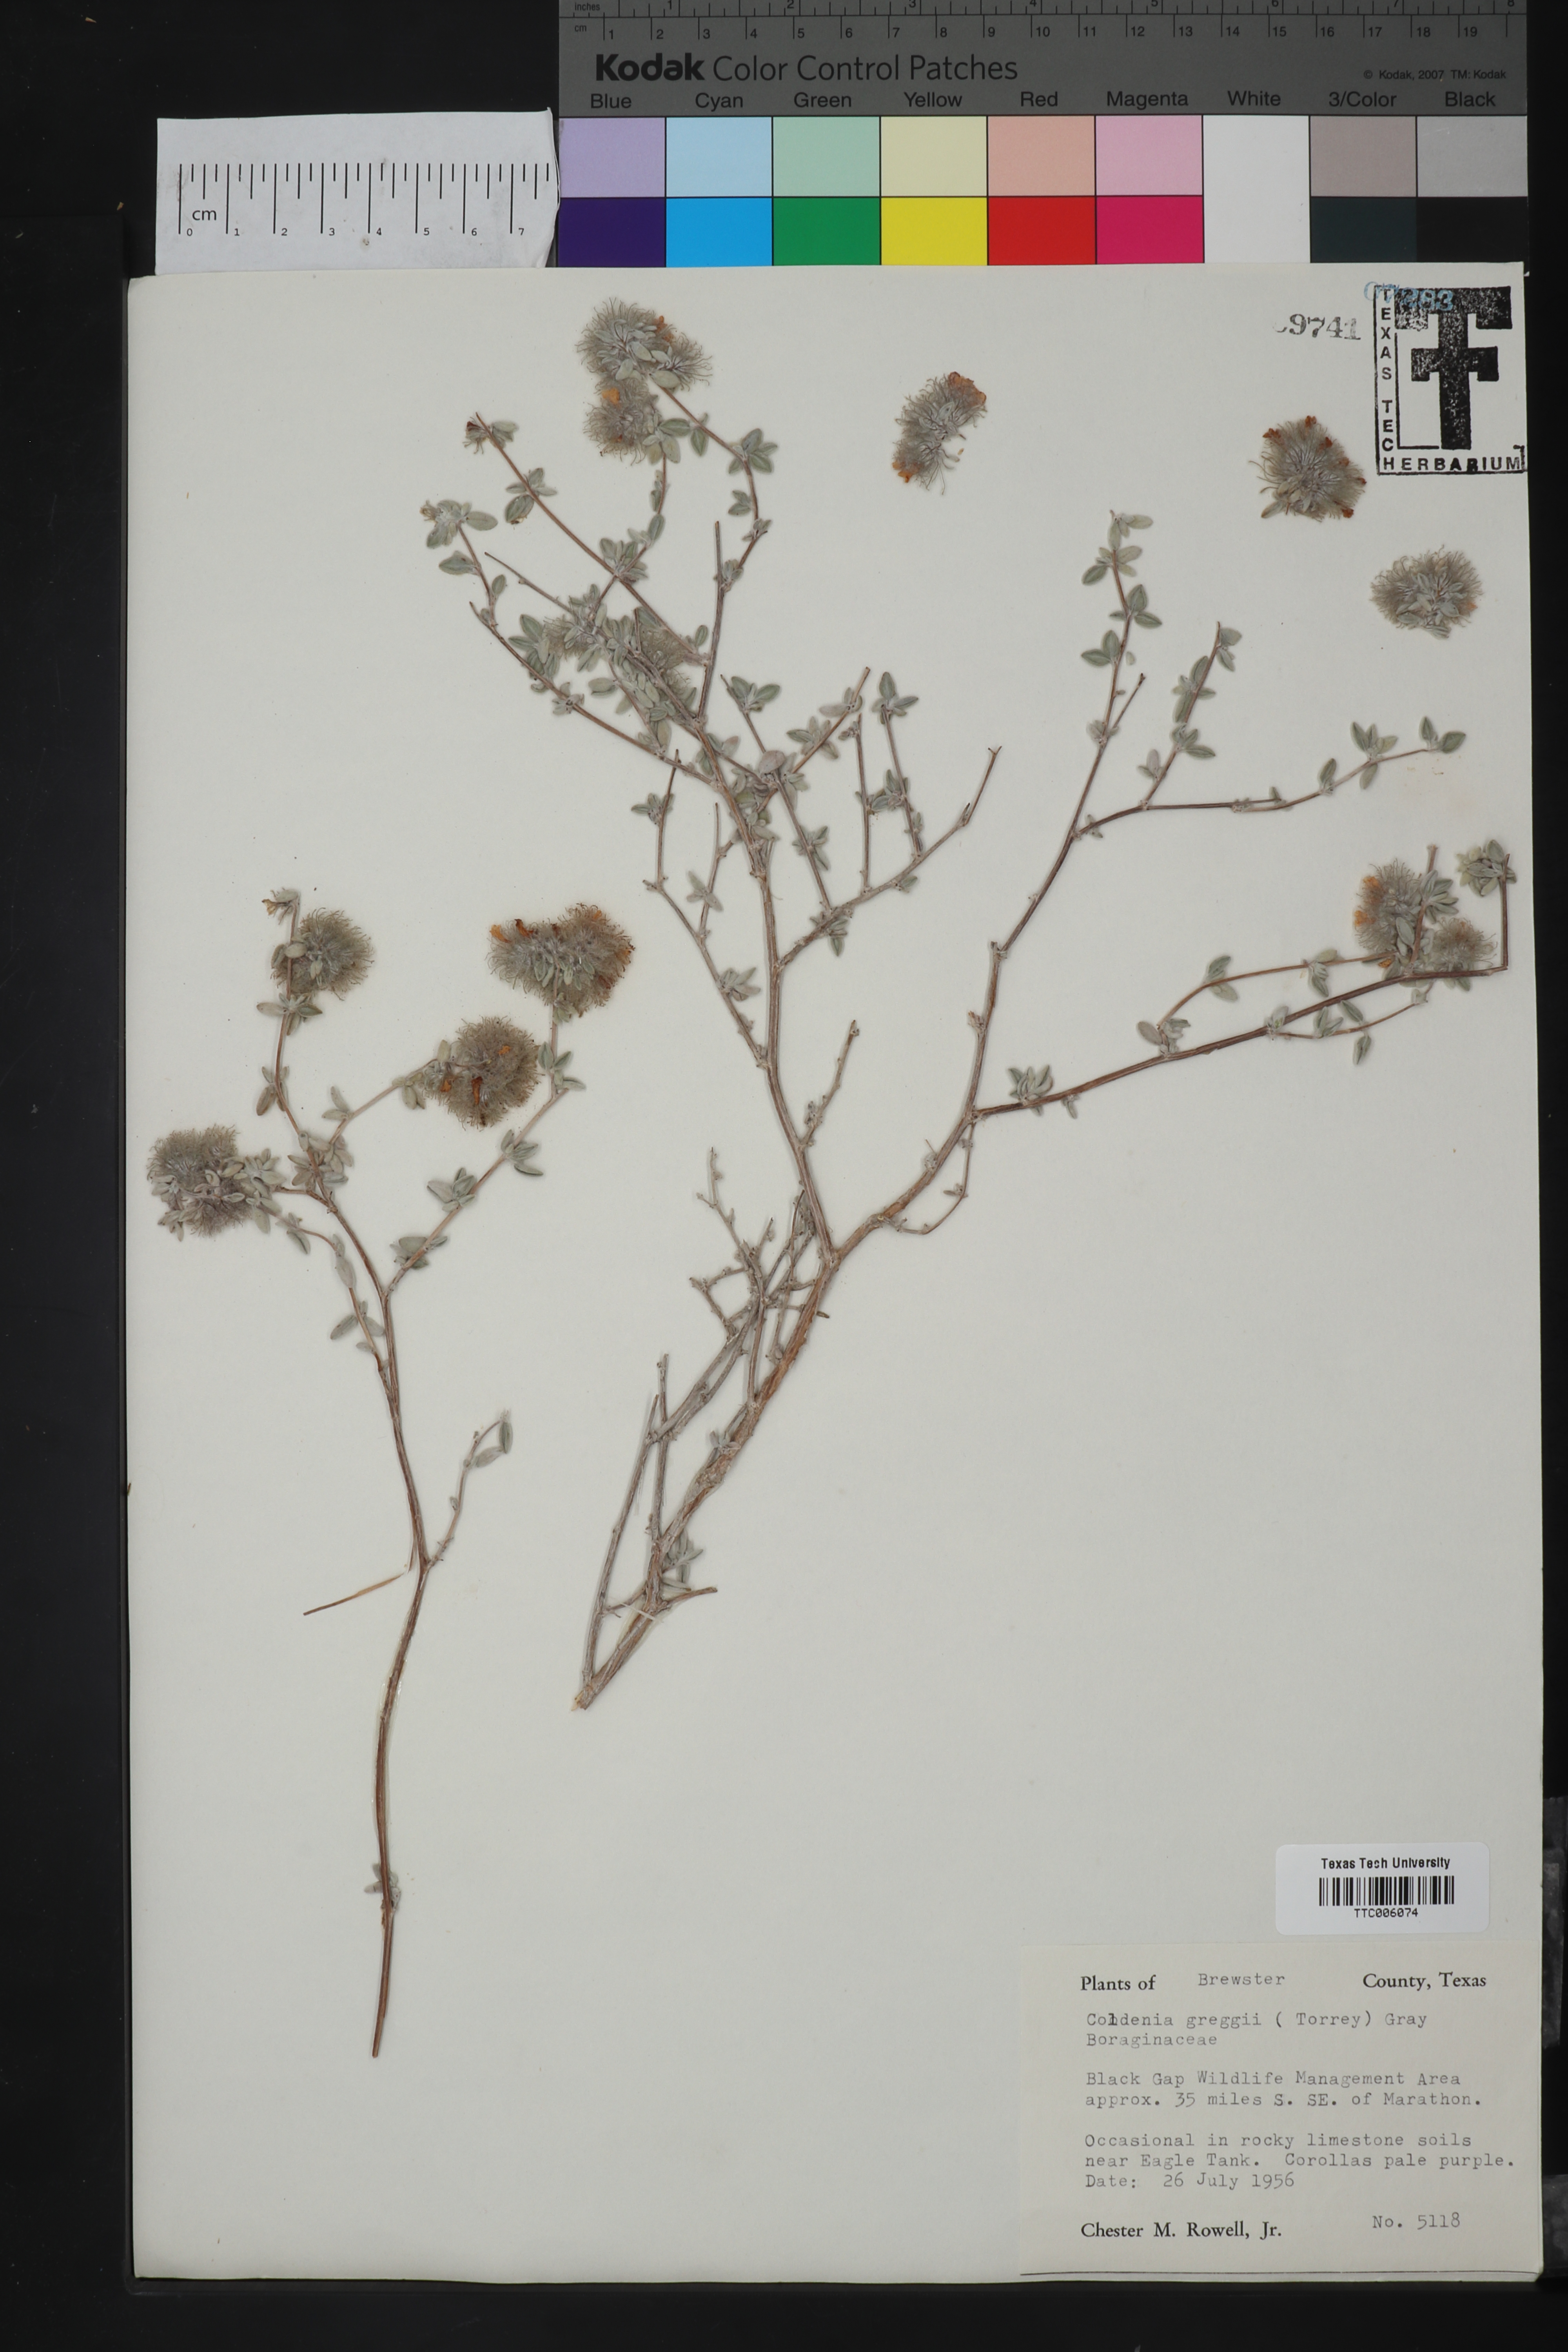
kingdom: Plantae
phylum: Tracheophyta
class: Magnoliopsida
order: Boraginales
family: Ehretiaceae
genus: Tiquilia
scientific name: Tiquilia greggii
